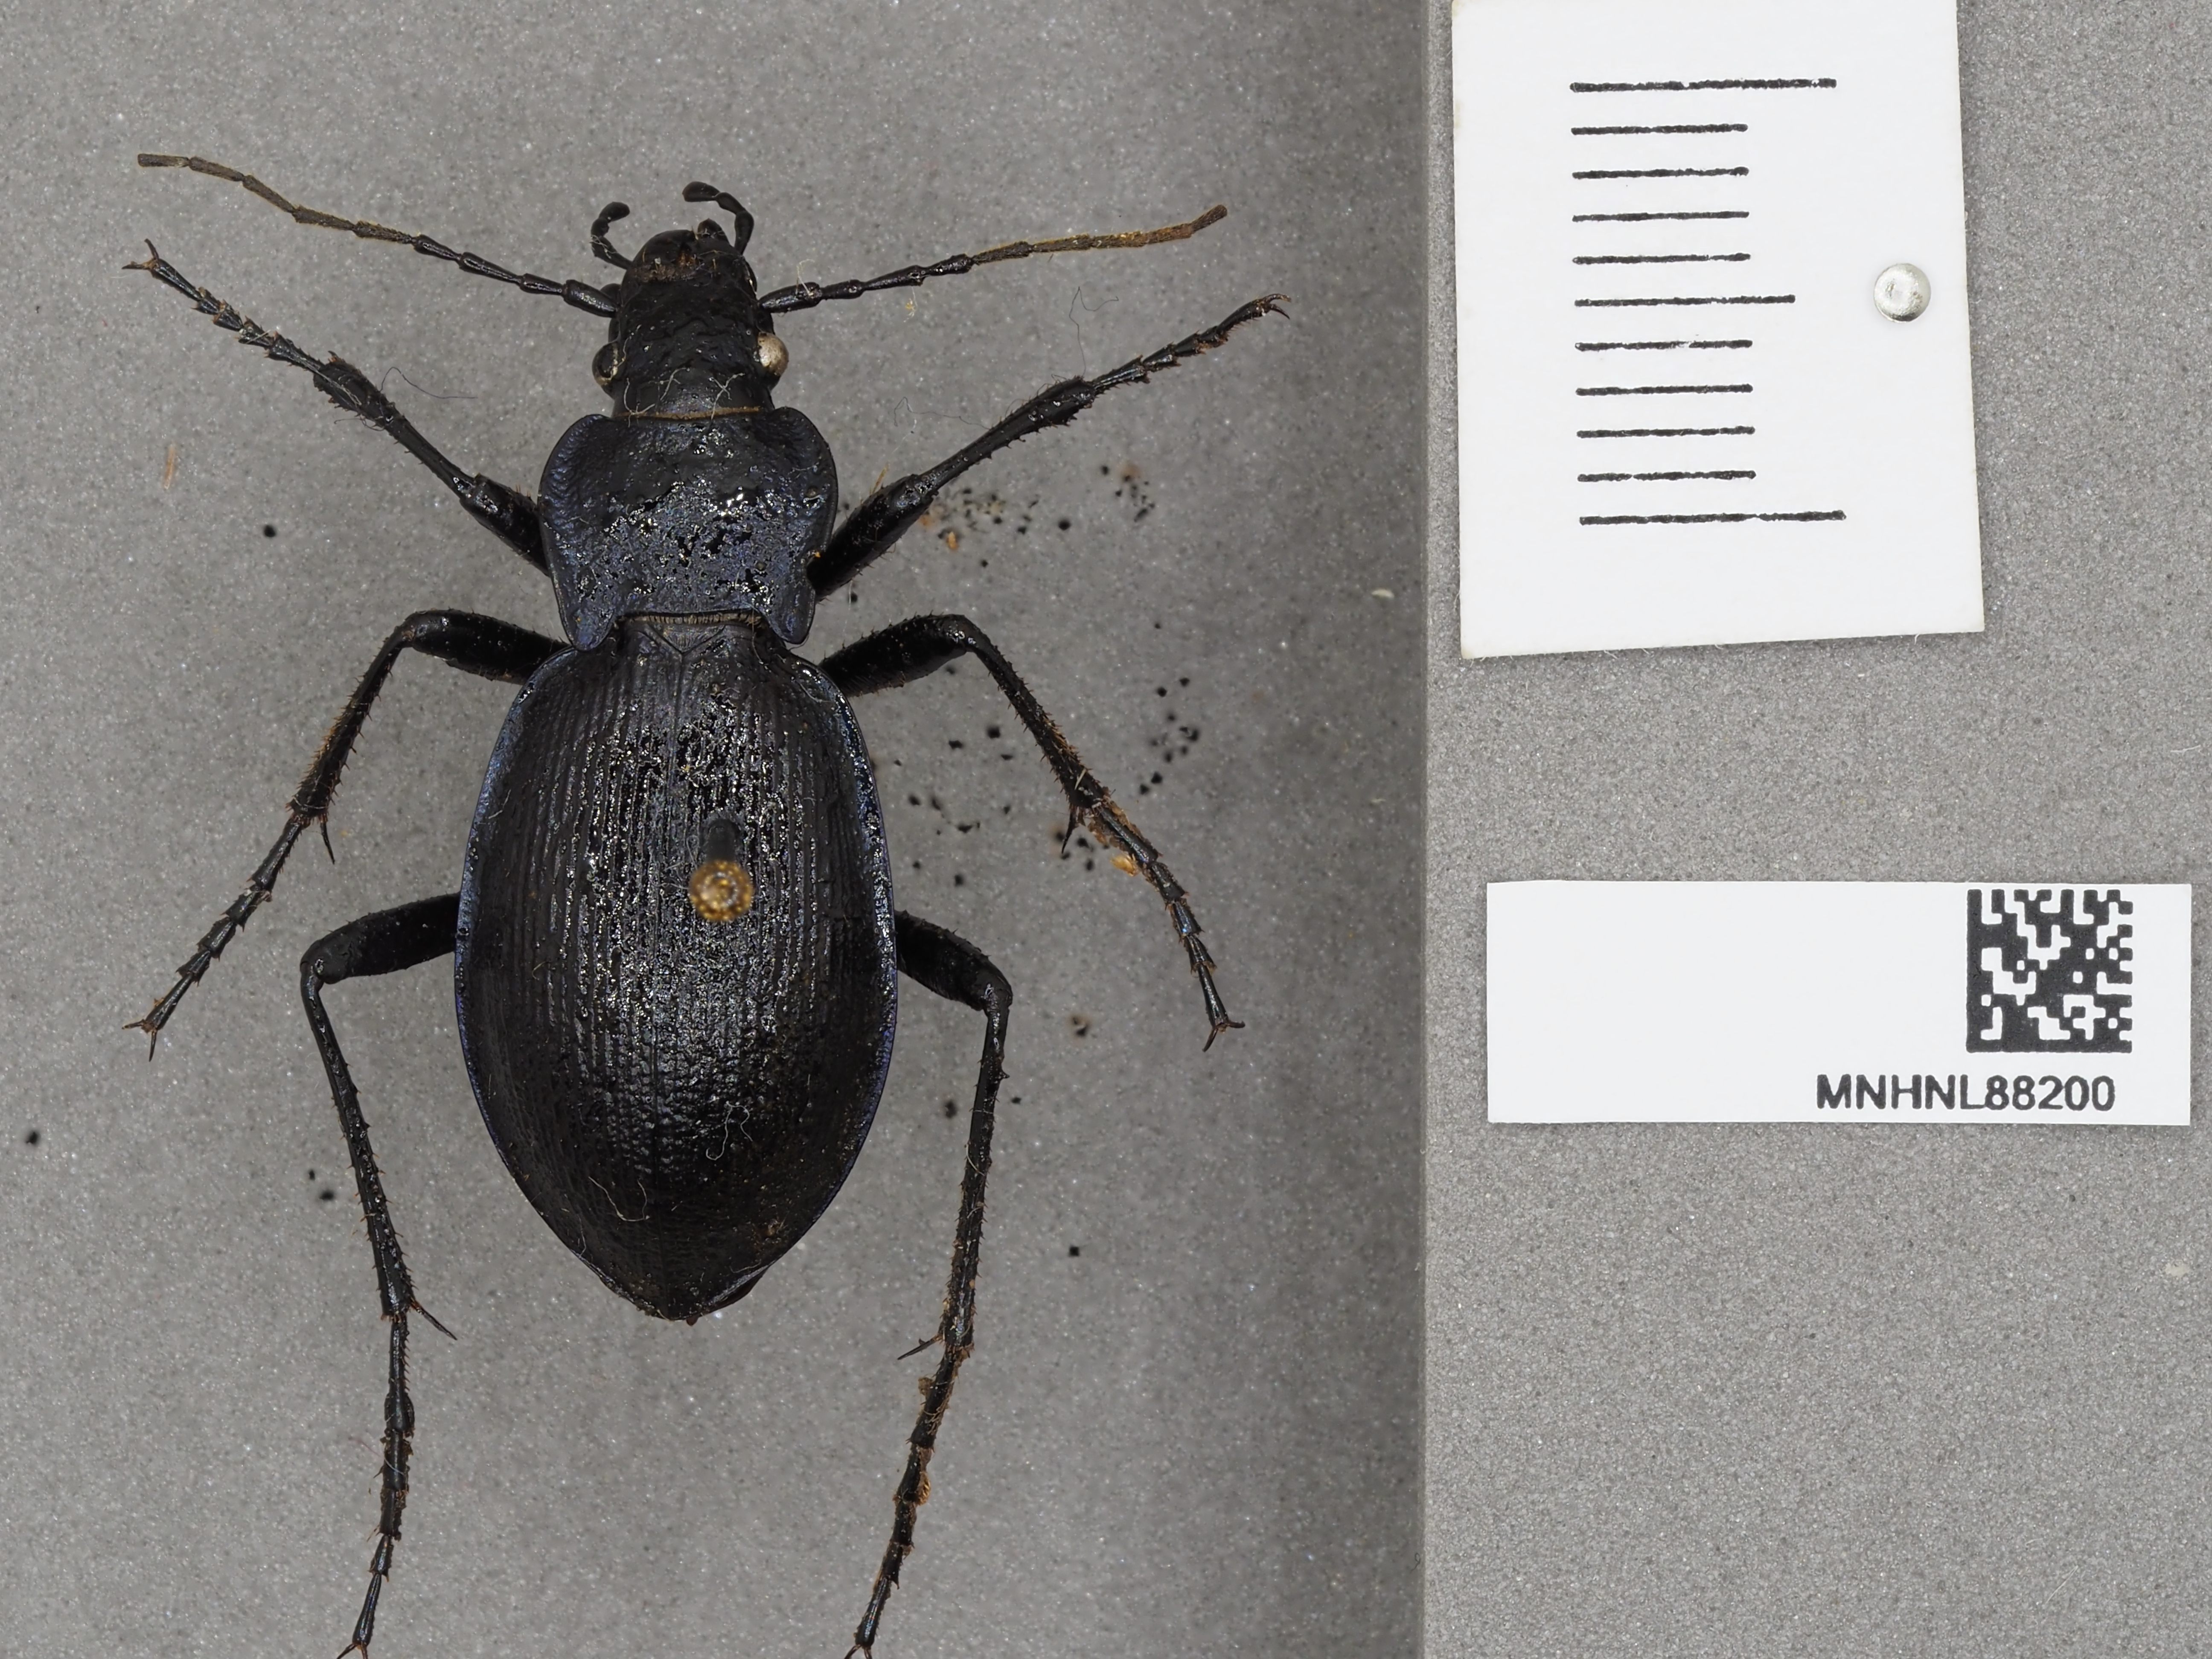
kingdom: Animalia
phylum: Arthropoda
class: Insecta
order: Coleoptera
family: Carabidae
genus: Carabus
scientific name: Carabus problematicus
